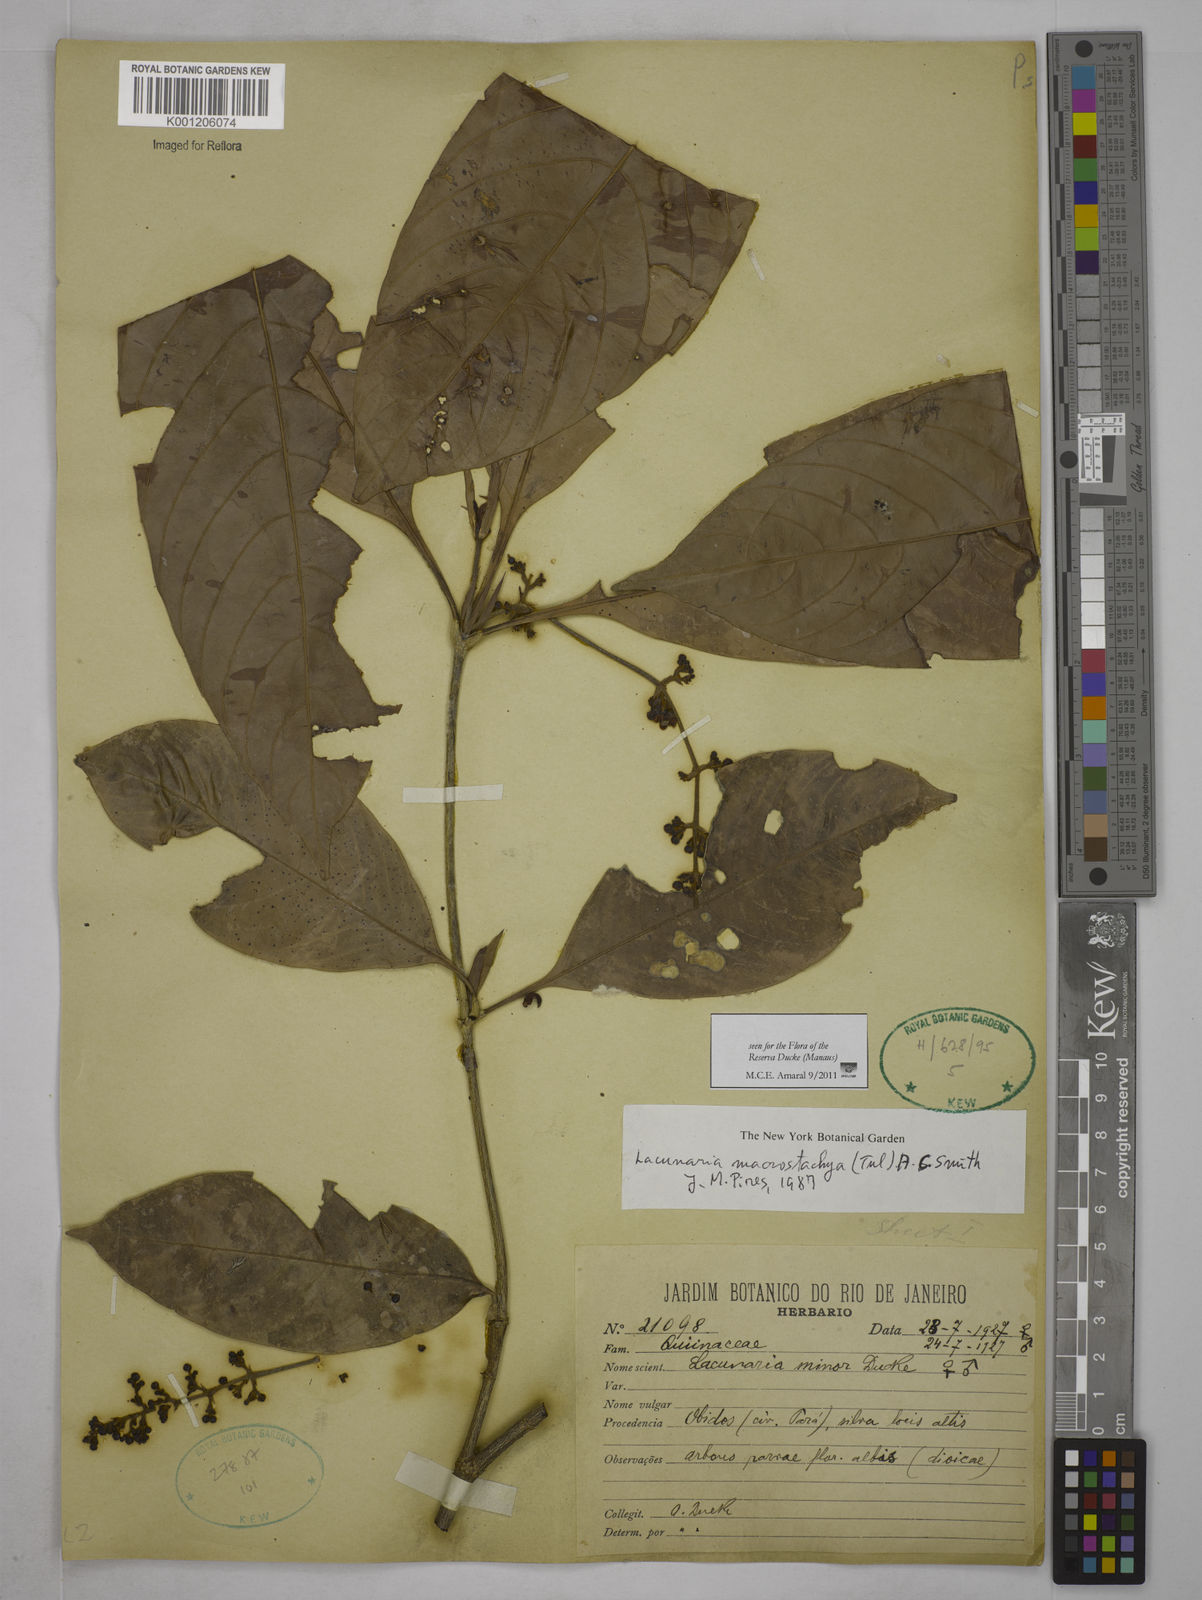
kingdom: Plantae
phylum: Tracheophyta
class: Magnoliopsida
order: Malpighiales
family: Quiinaceae
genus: Lacunaria
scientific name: Lacunaria macrostachya
